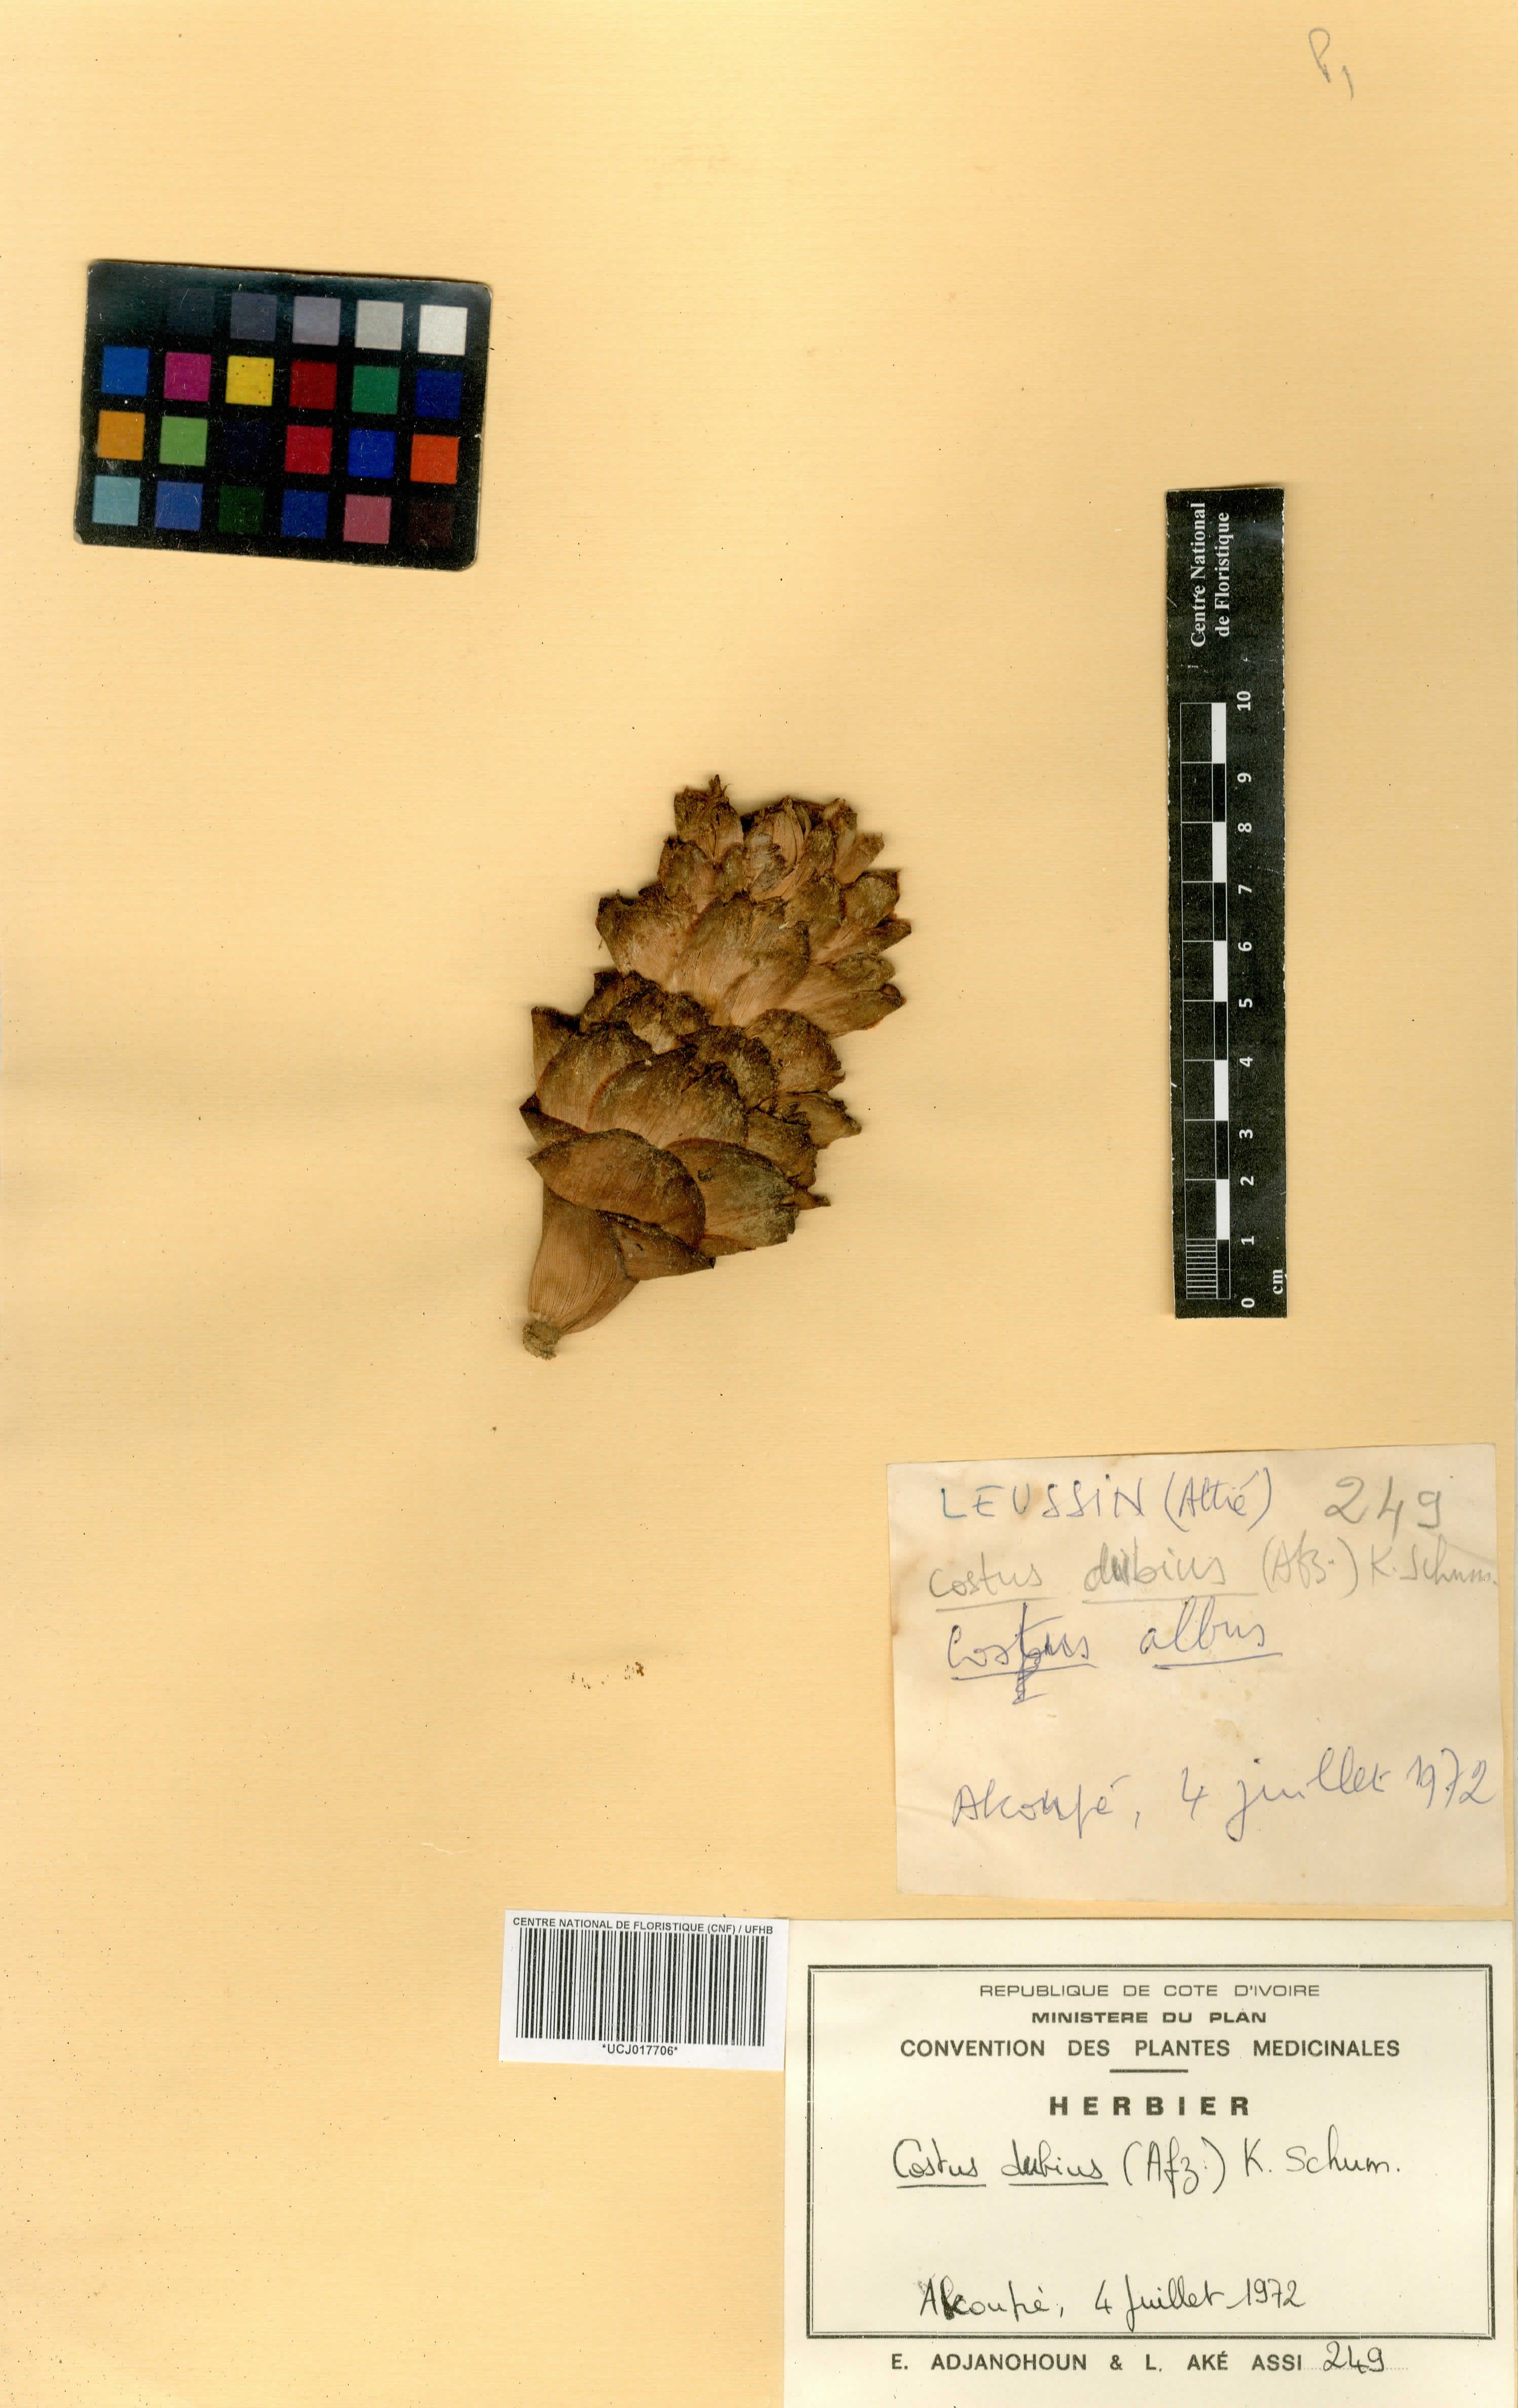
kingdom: Plantae
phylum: Tracheophyta
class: Liliopsida
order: Zingiberales
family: Costaceae
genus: Costus
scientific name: Costus dubius
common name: Costus
